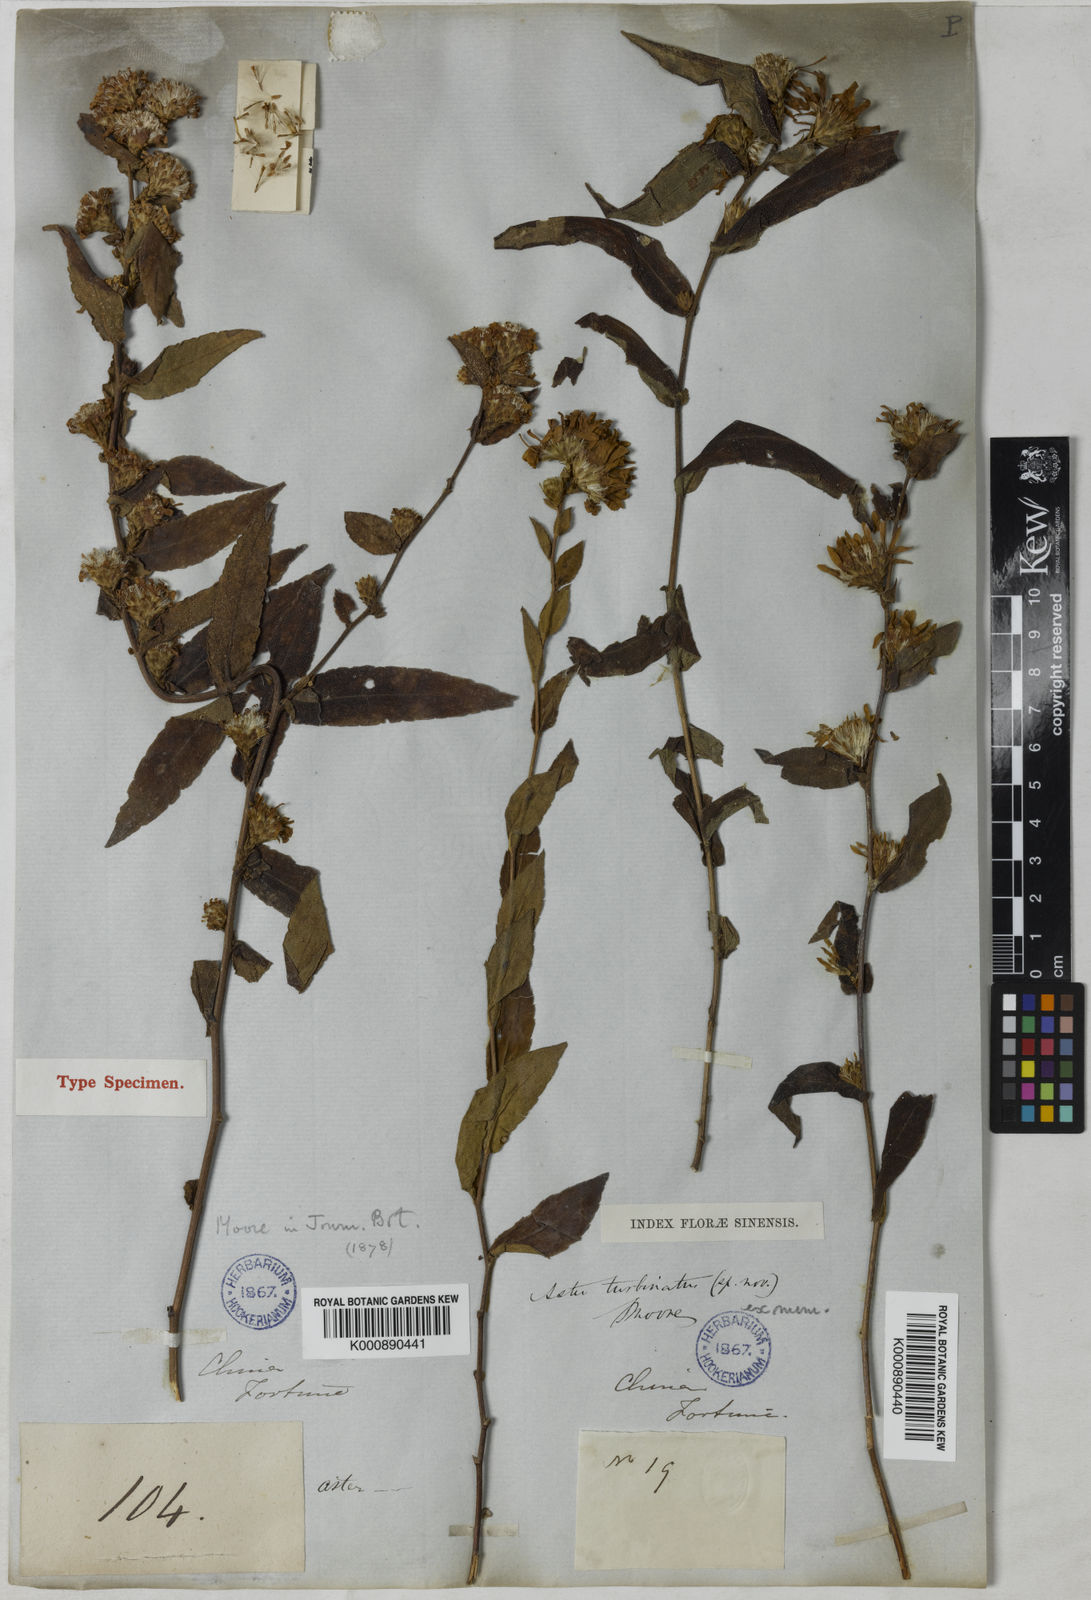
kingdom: Plantae
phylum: Tracheophyta
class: Magnoliopsida
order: Asterales
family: Asteraceae
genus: Aster
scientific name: Aster turbinatus
